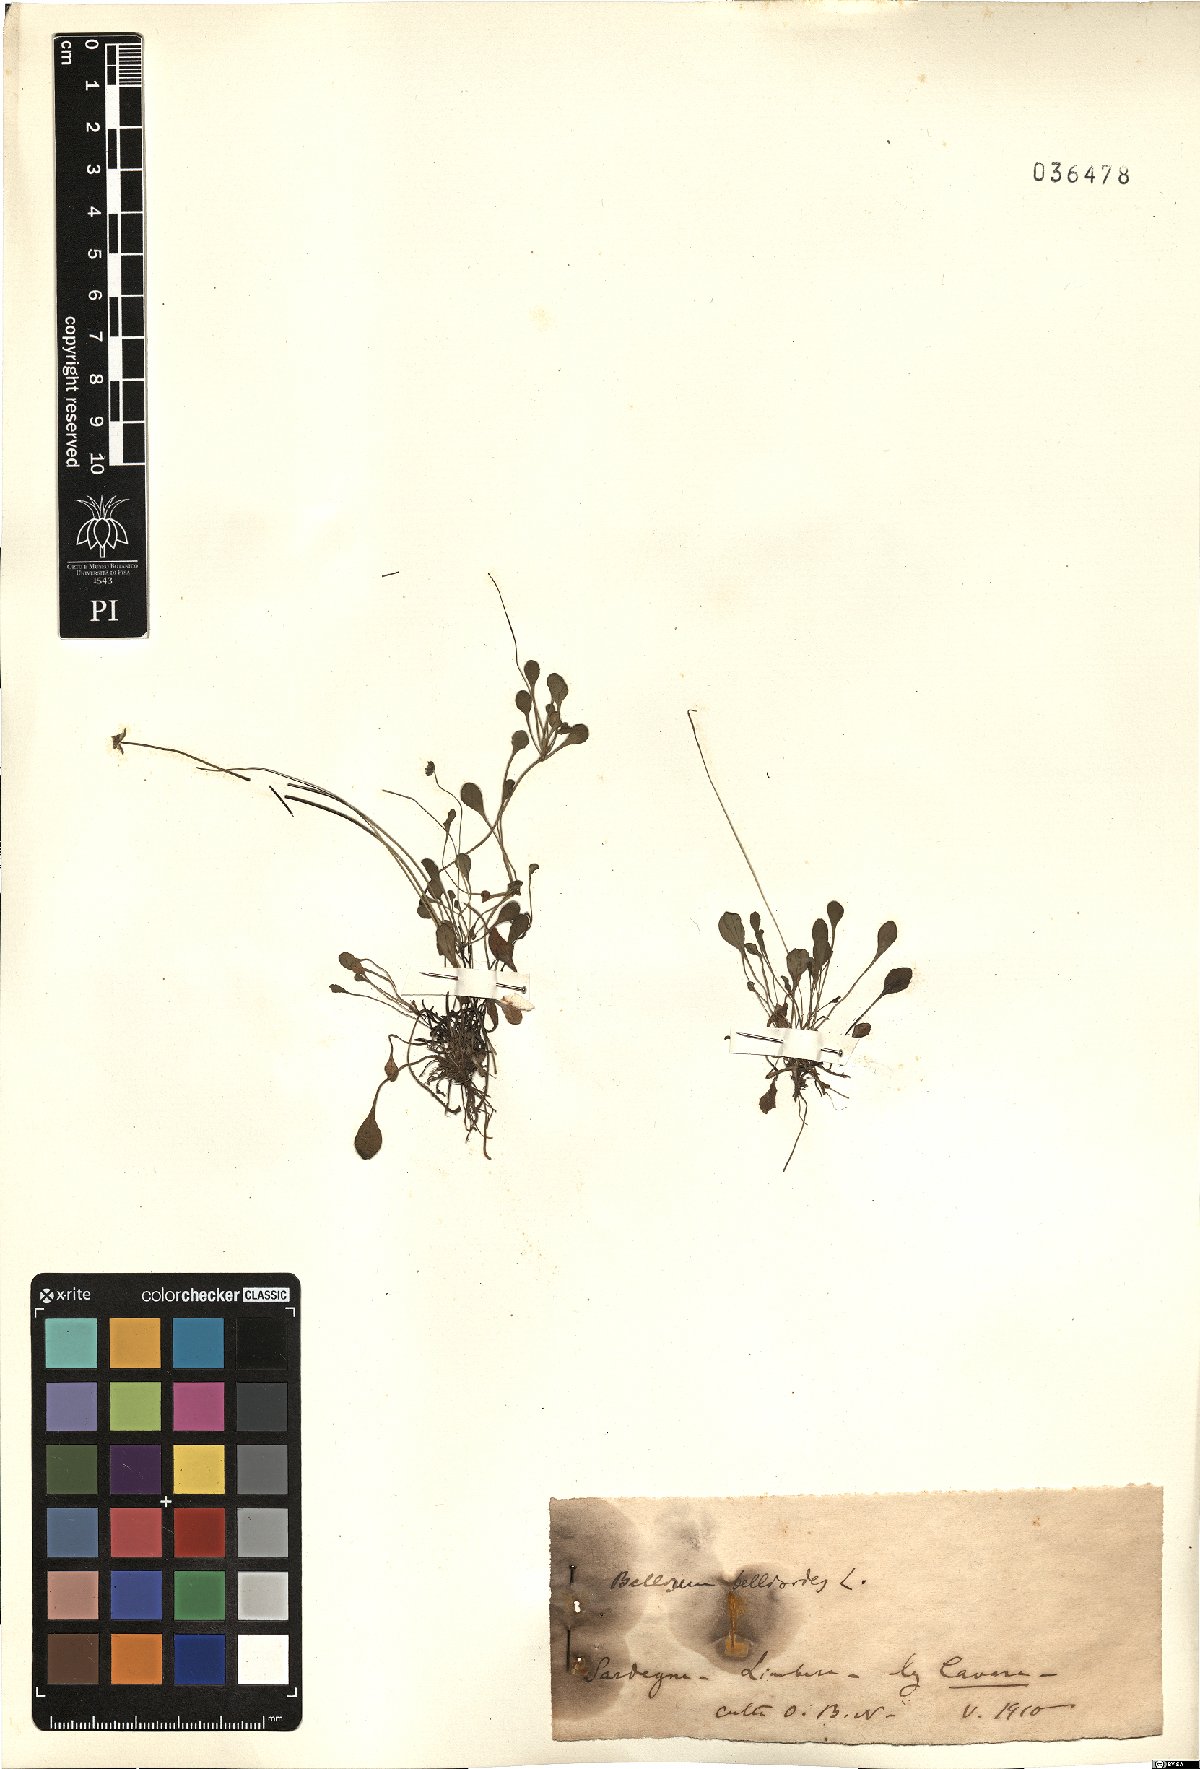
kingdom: Plantae
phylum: Tracheophyta
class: Magnoliopsida
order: Asterales
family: Asteraceae
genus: Bellium
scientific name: Bellium bellidioides
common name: False daisy
